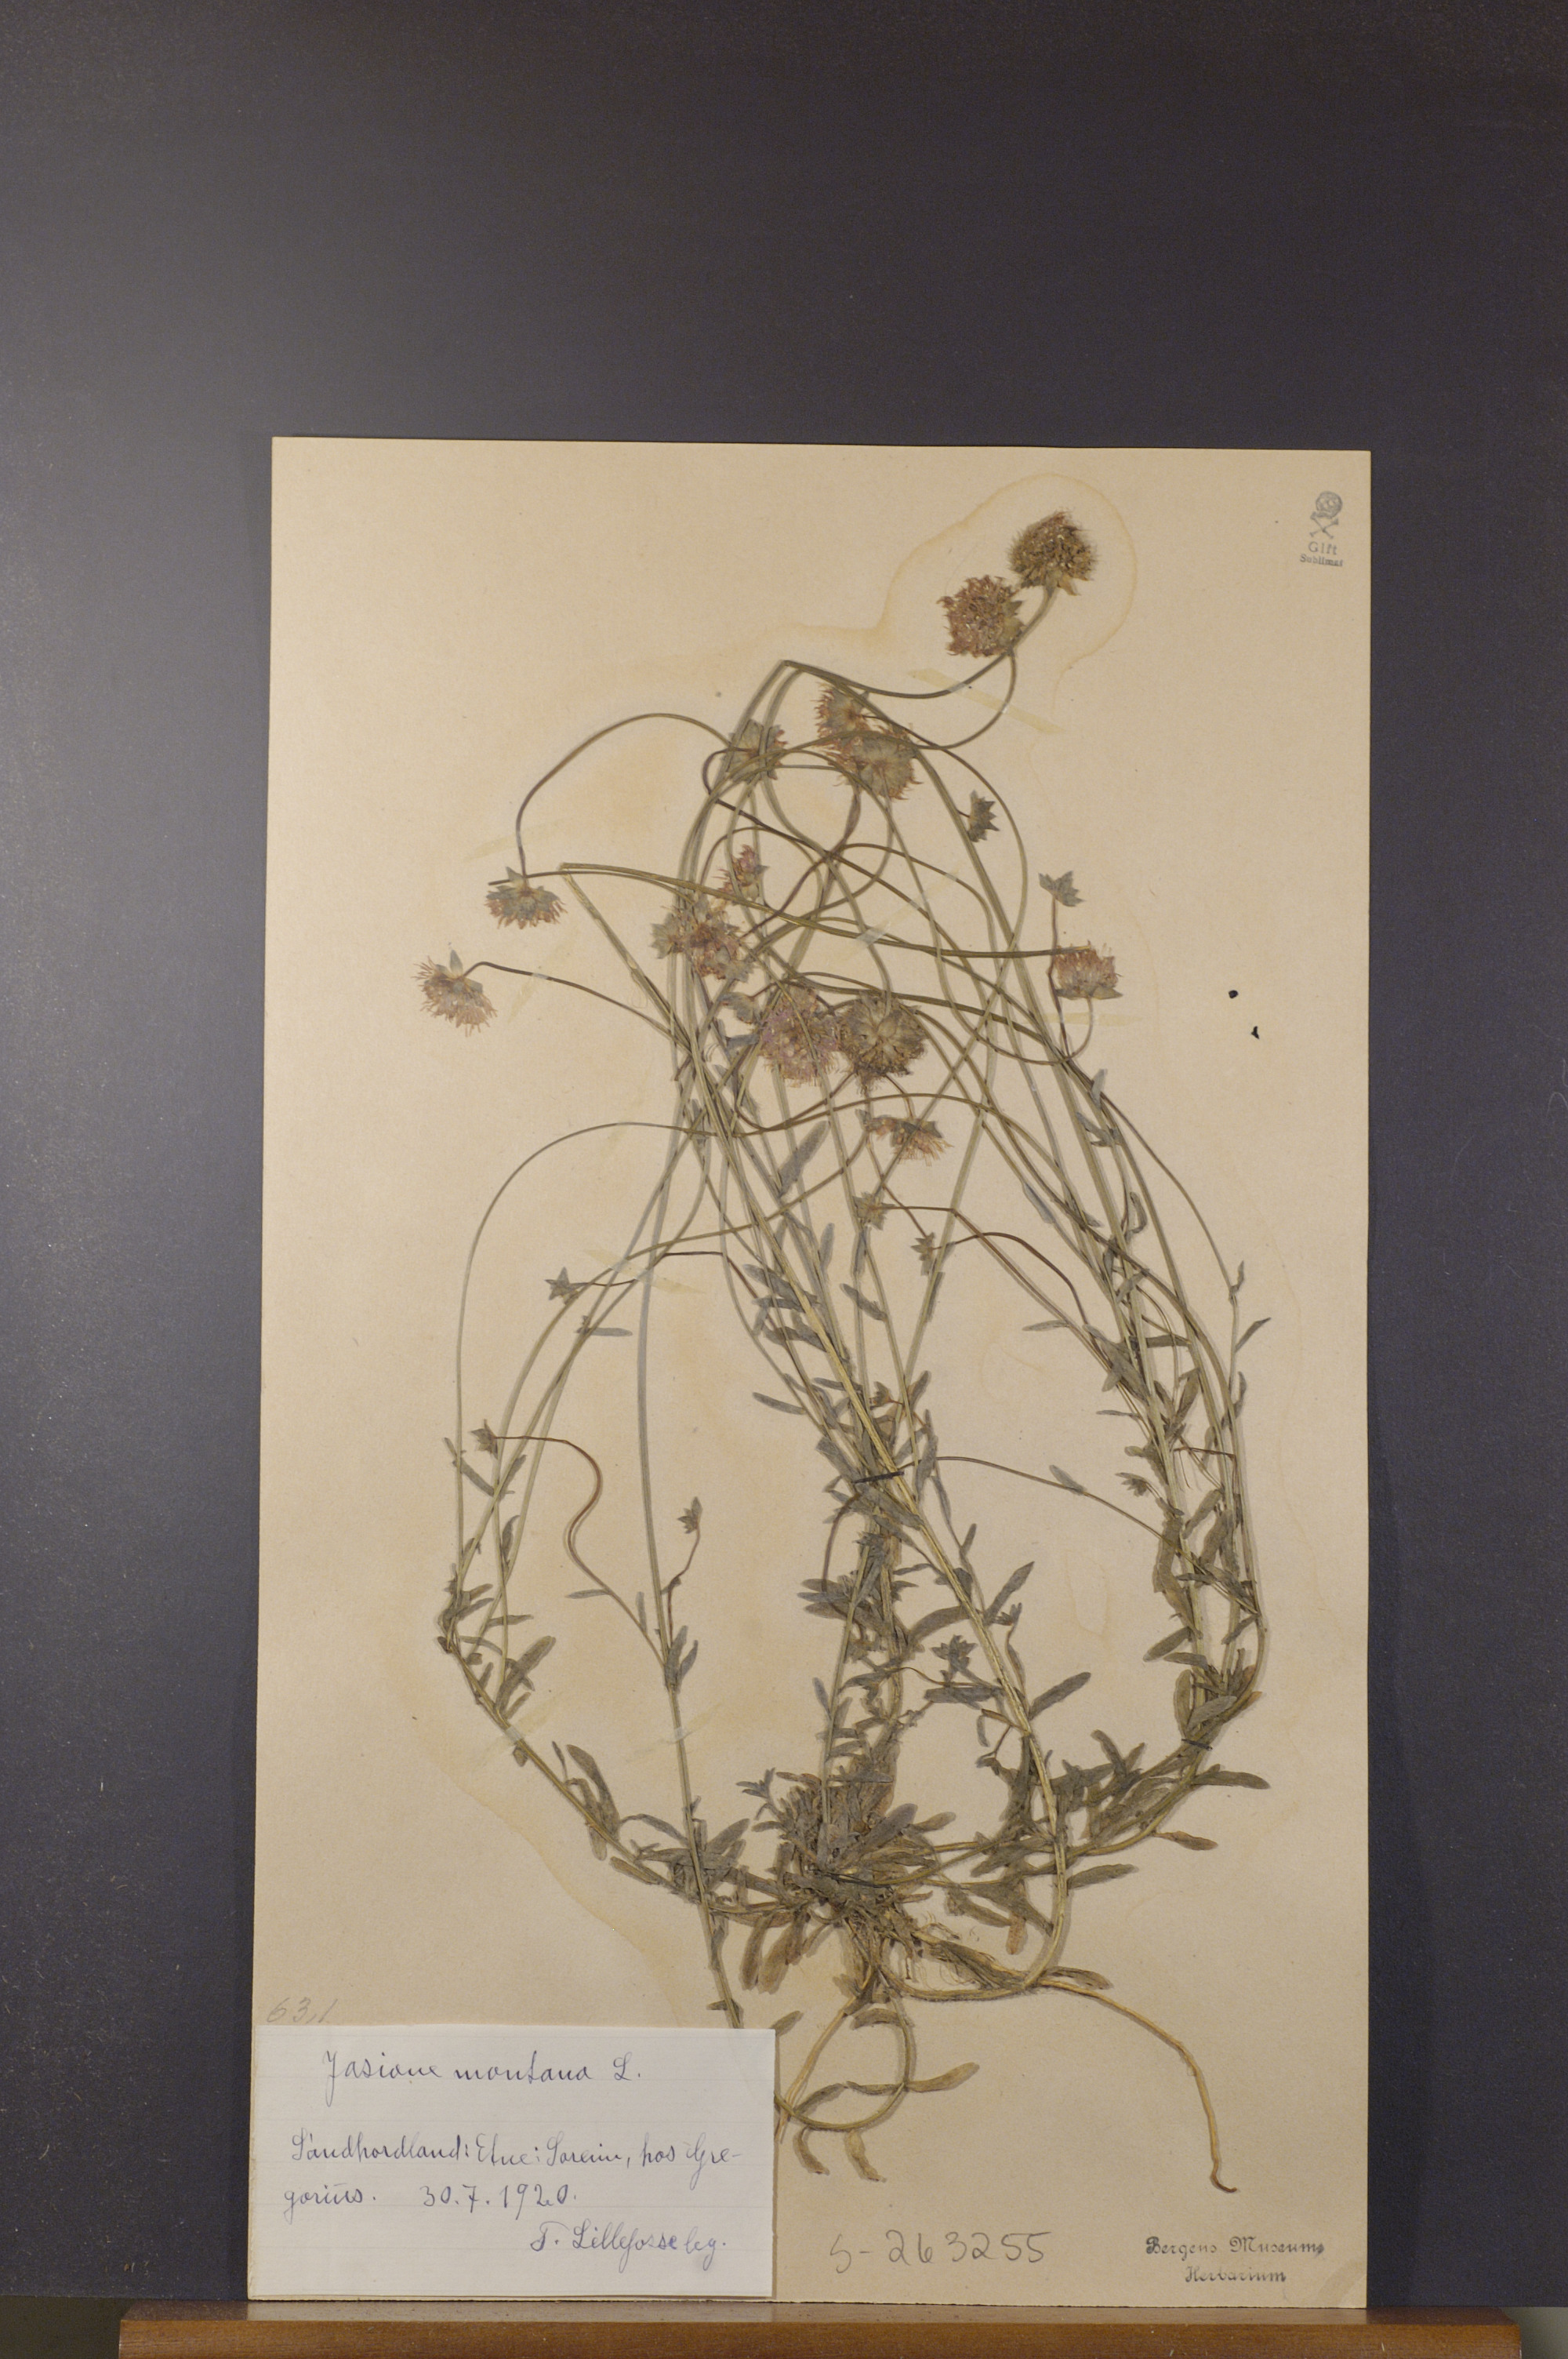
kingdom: Plantae
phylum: Tracheophyta
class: Magnoliopsida
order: Asterales
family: Campanulaceae
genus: Jasione
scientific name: Jasione montana
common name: Sheep's-bit
